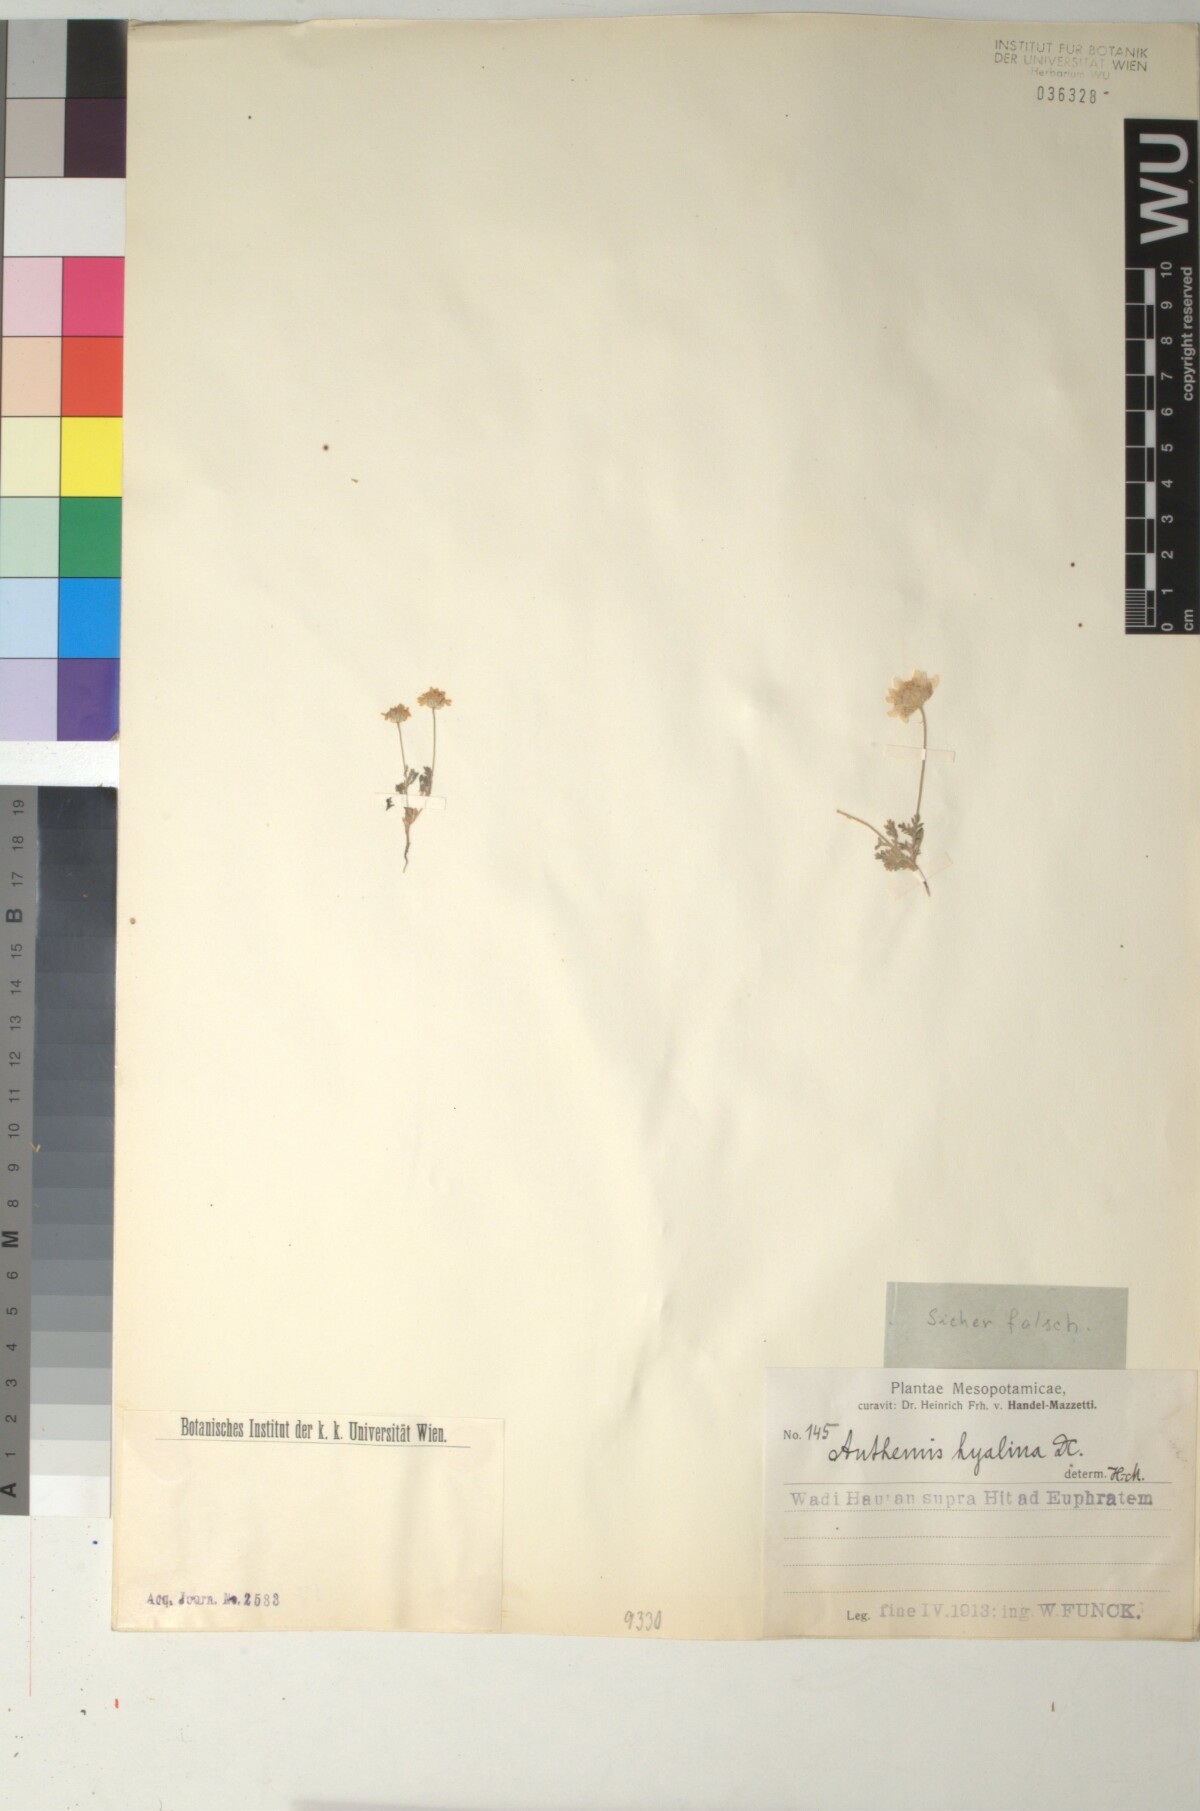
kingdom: Plantae
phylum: Tracheophyta
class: Magnoliopsida
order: Asterales
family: Asteraceae
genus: Anthemis
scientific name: Anthemis hyalina
